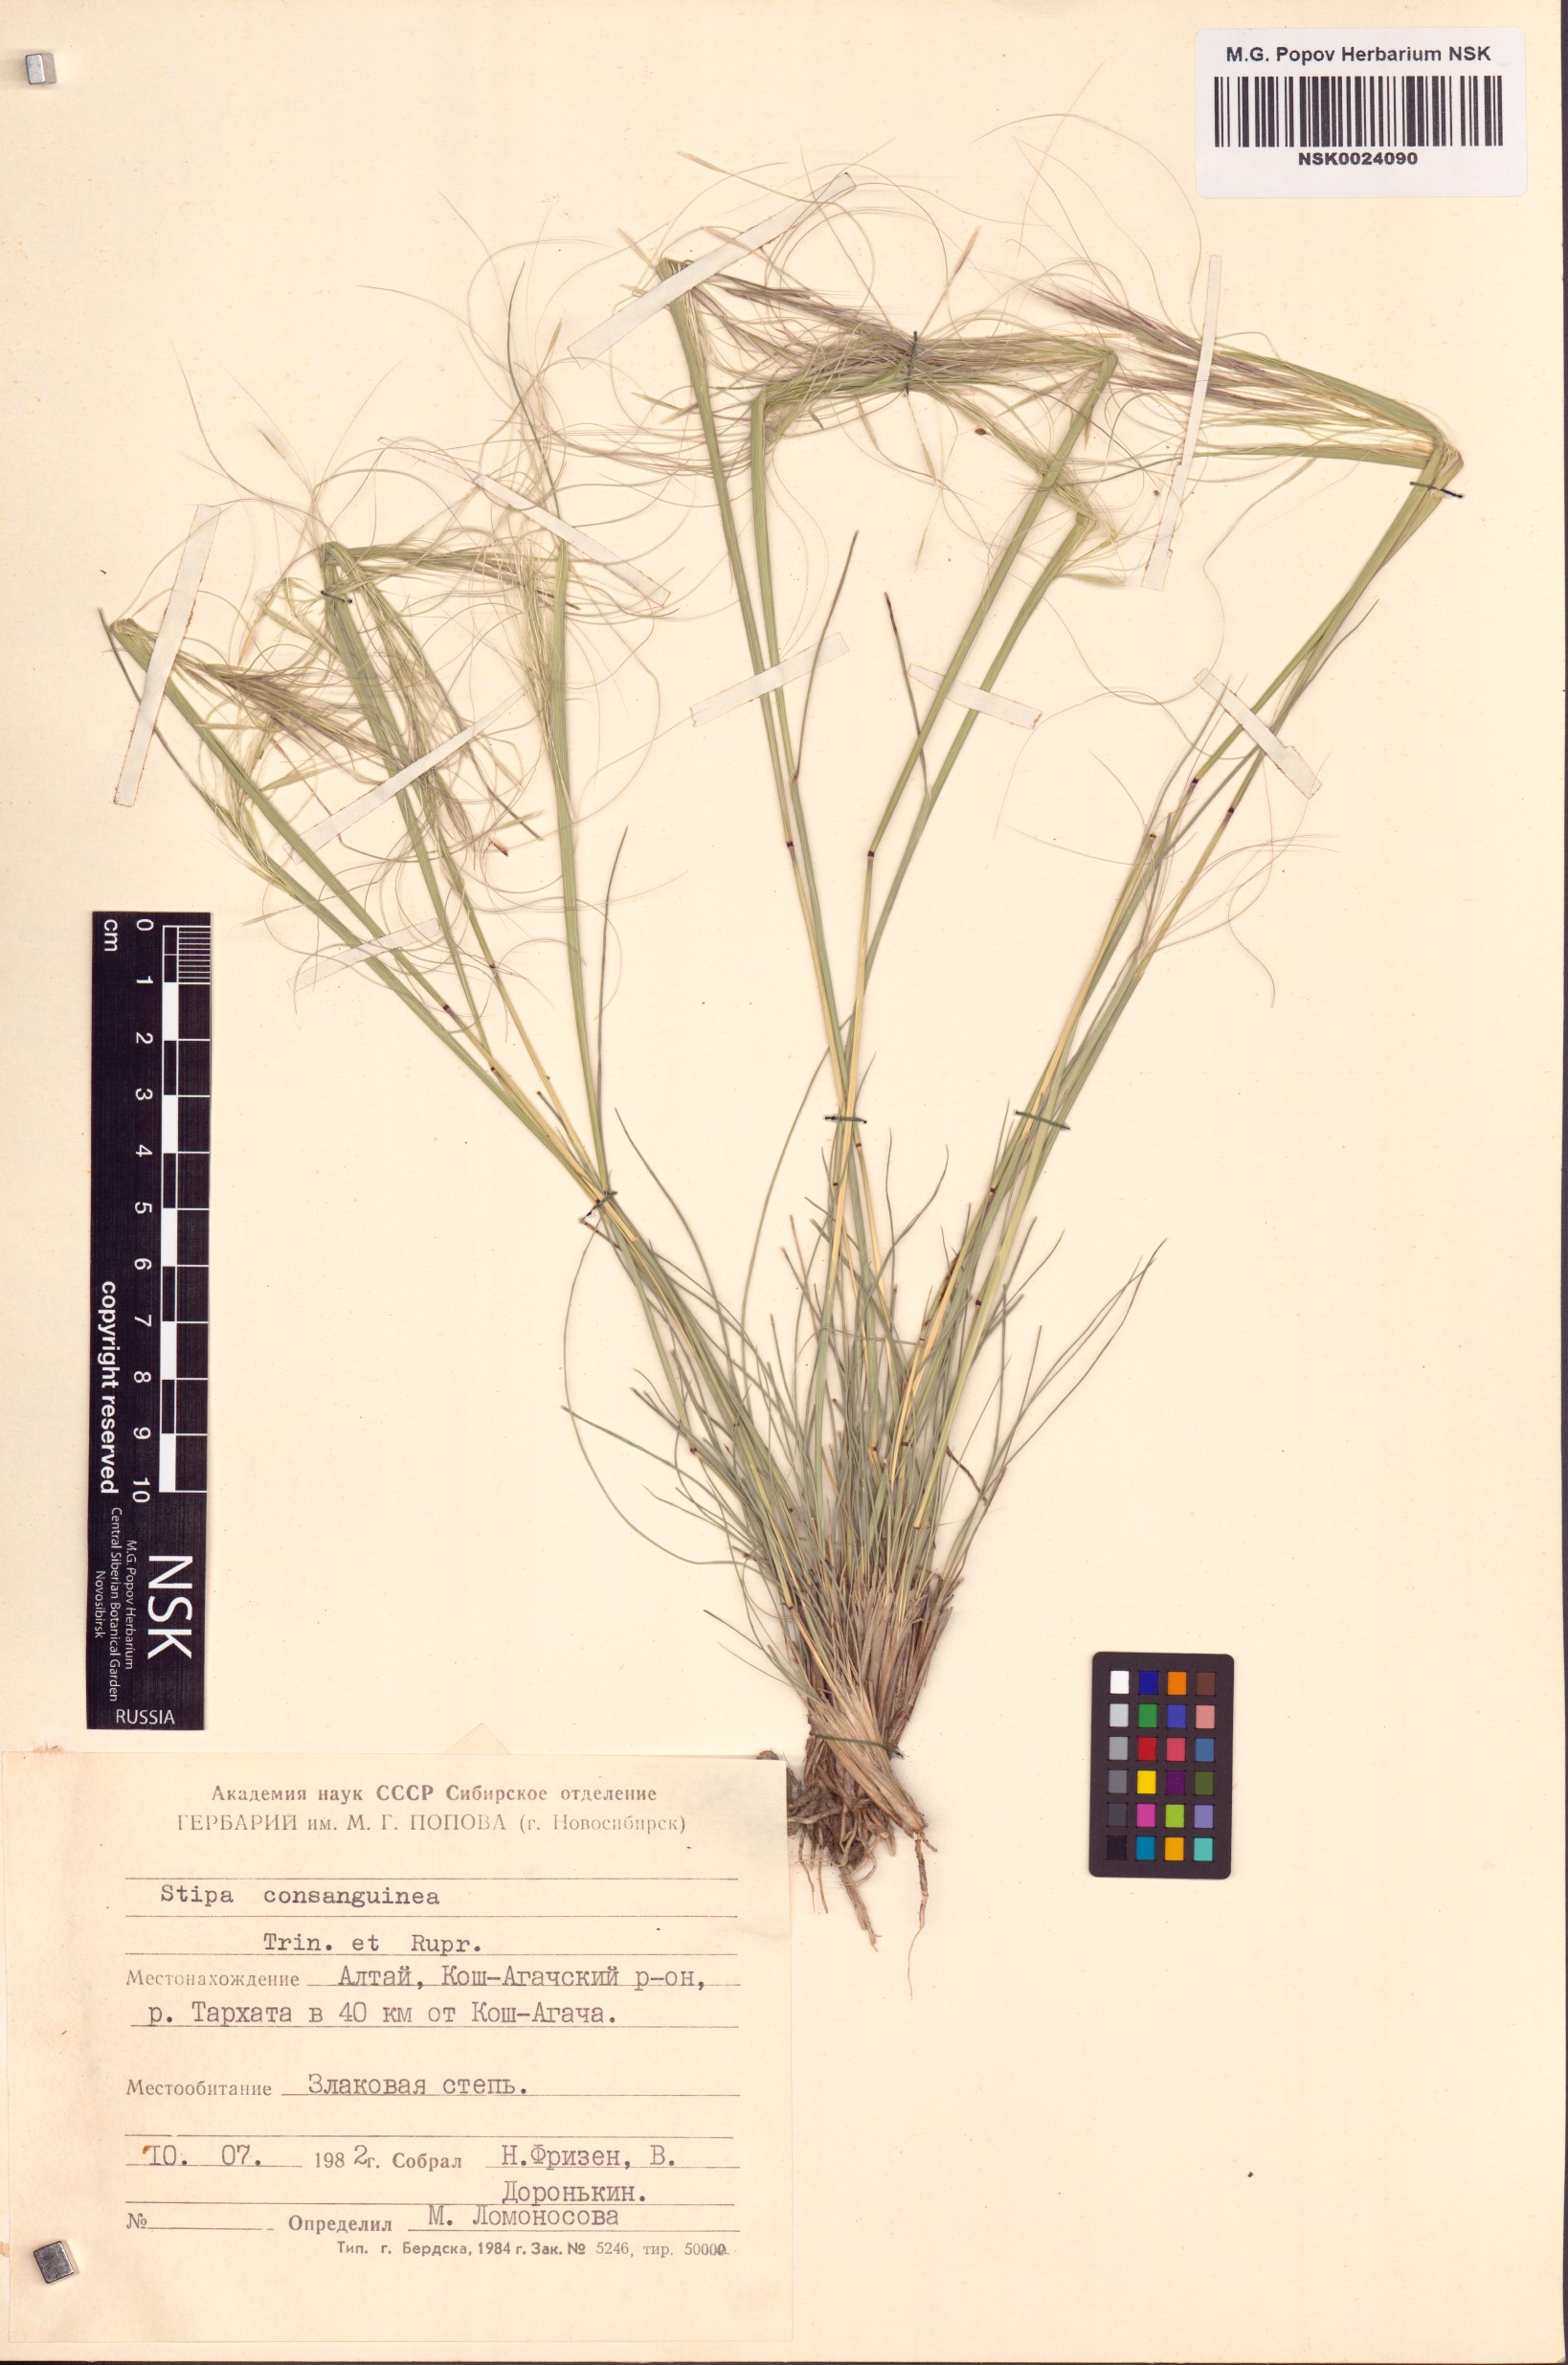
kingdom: Plantae
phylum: Tracheophyta
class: Liliopsida
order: Poales
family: Poaceae
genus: Stipa
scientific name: Stipa consanguinea
